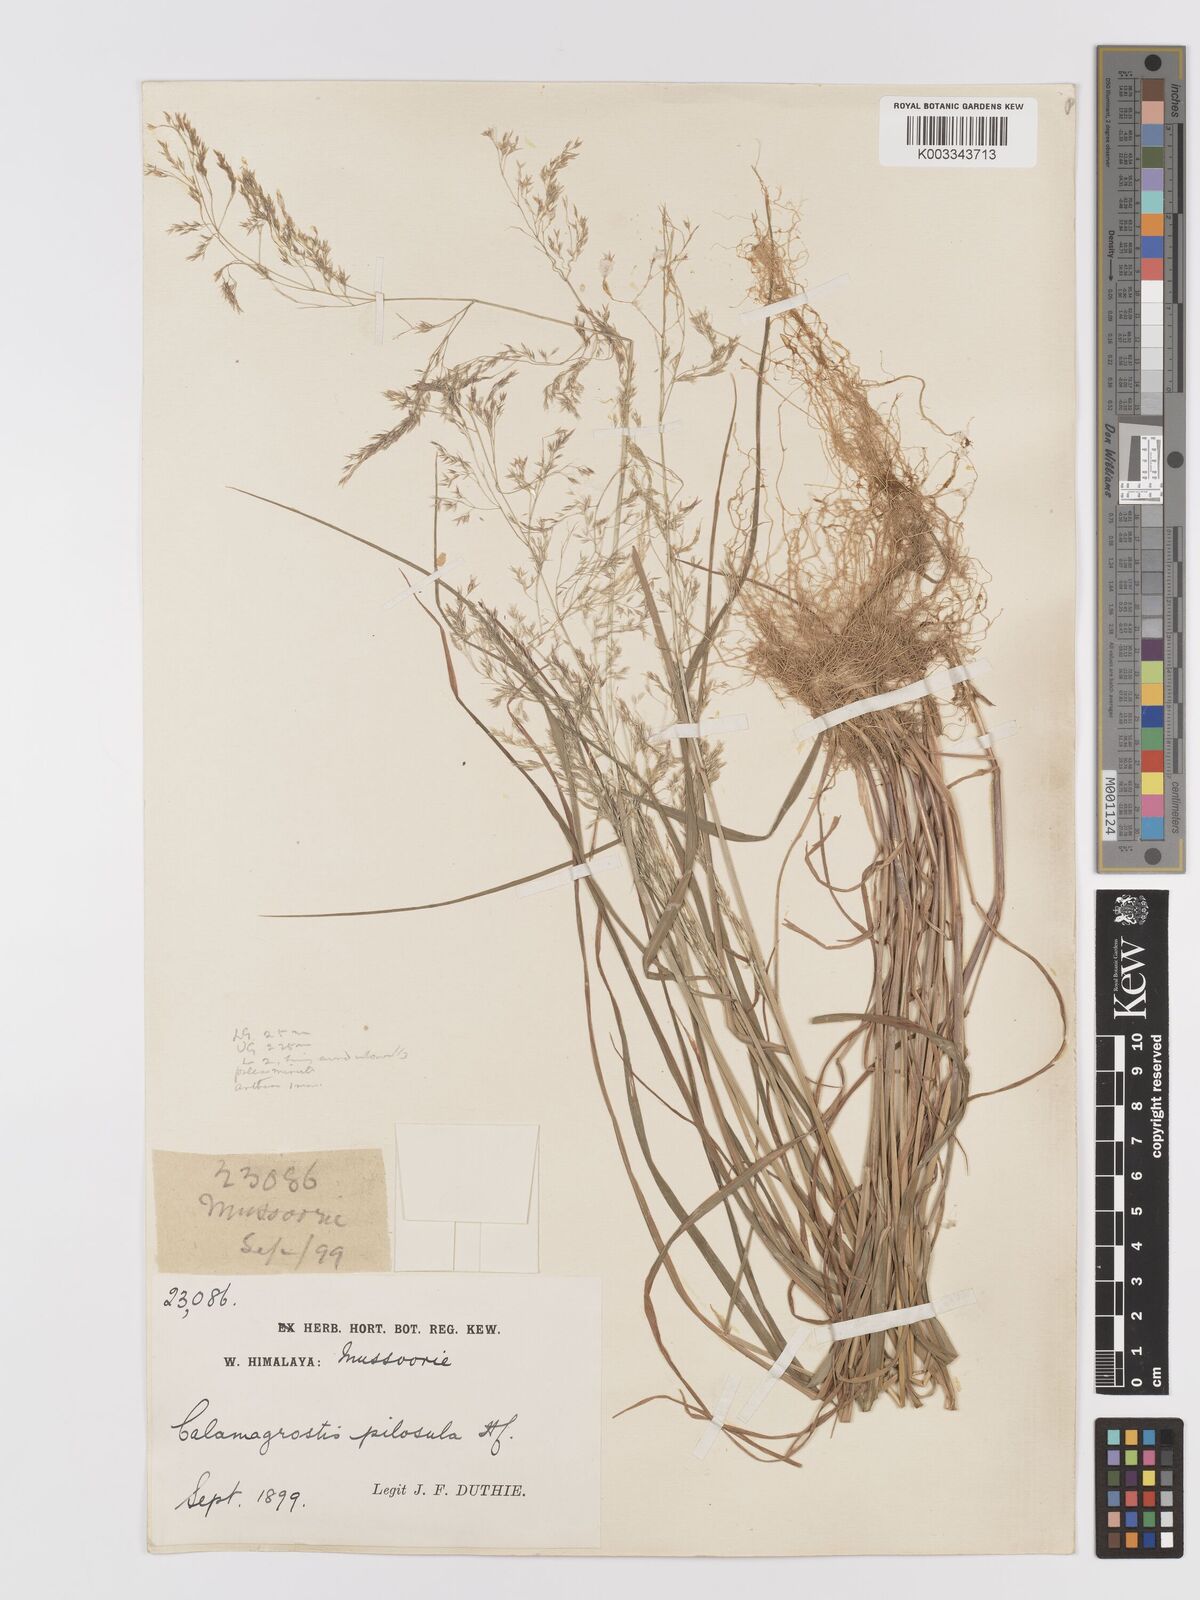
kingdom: Plantae
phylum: Tracheophyta
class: Liliopsida
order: Poales
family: Poaceae
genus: Agrostis
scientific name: Agrostis pilosula
